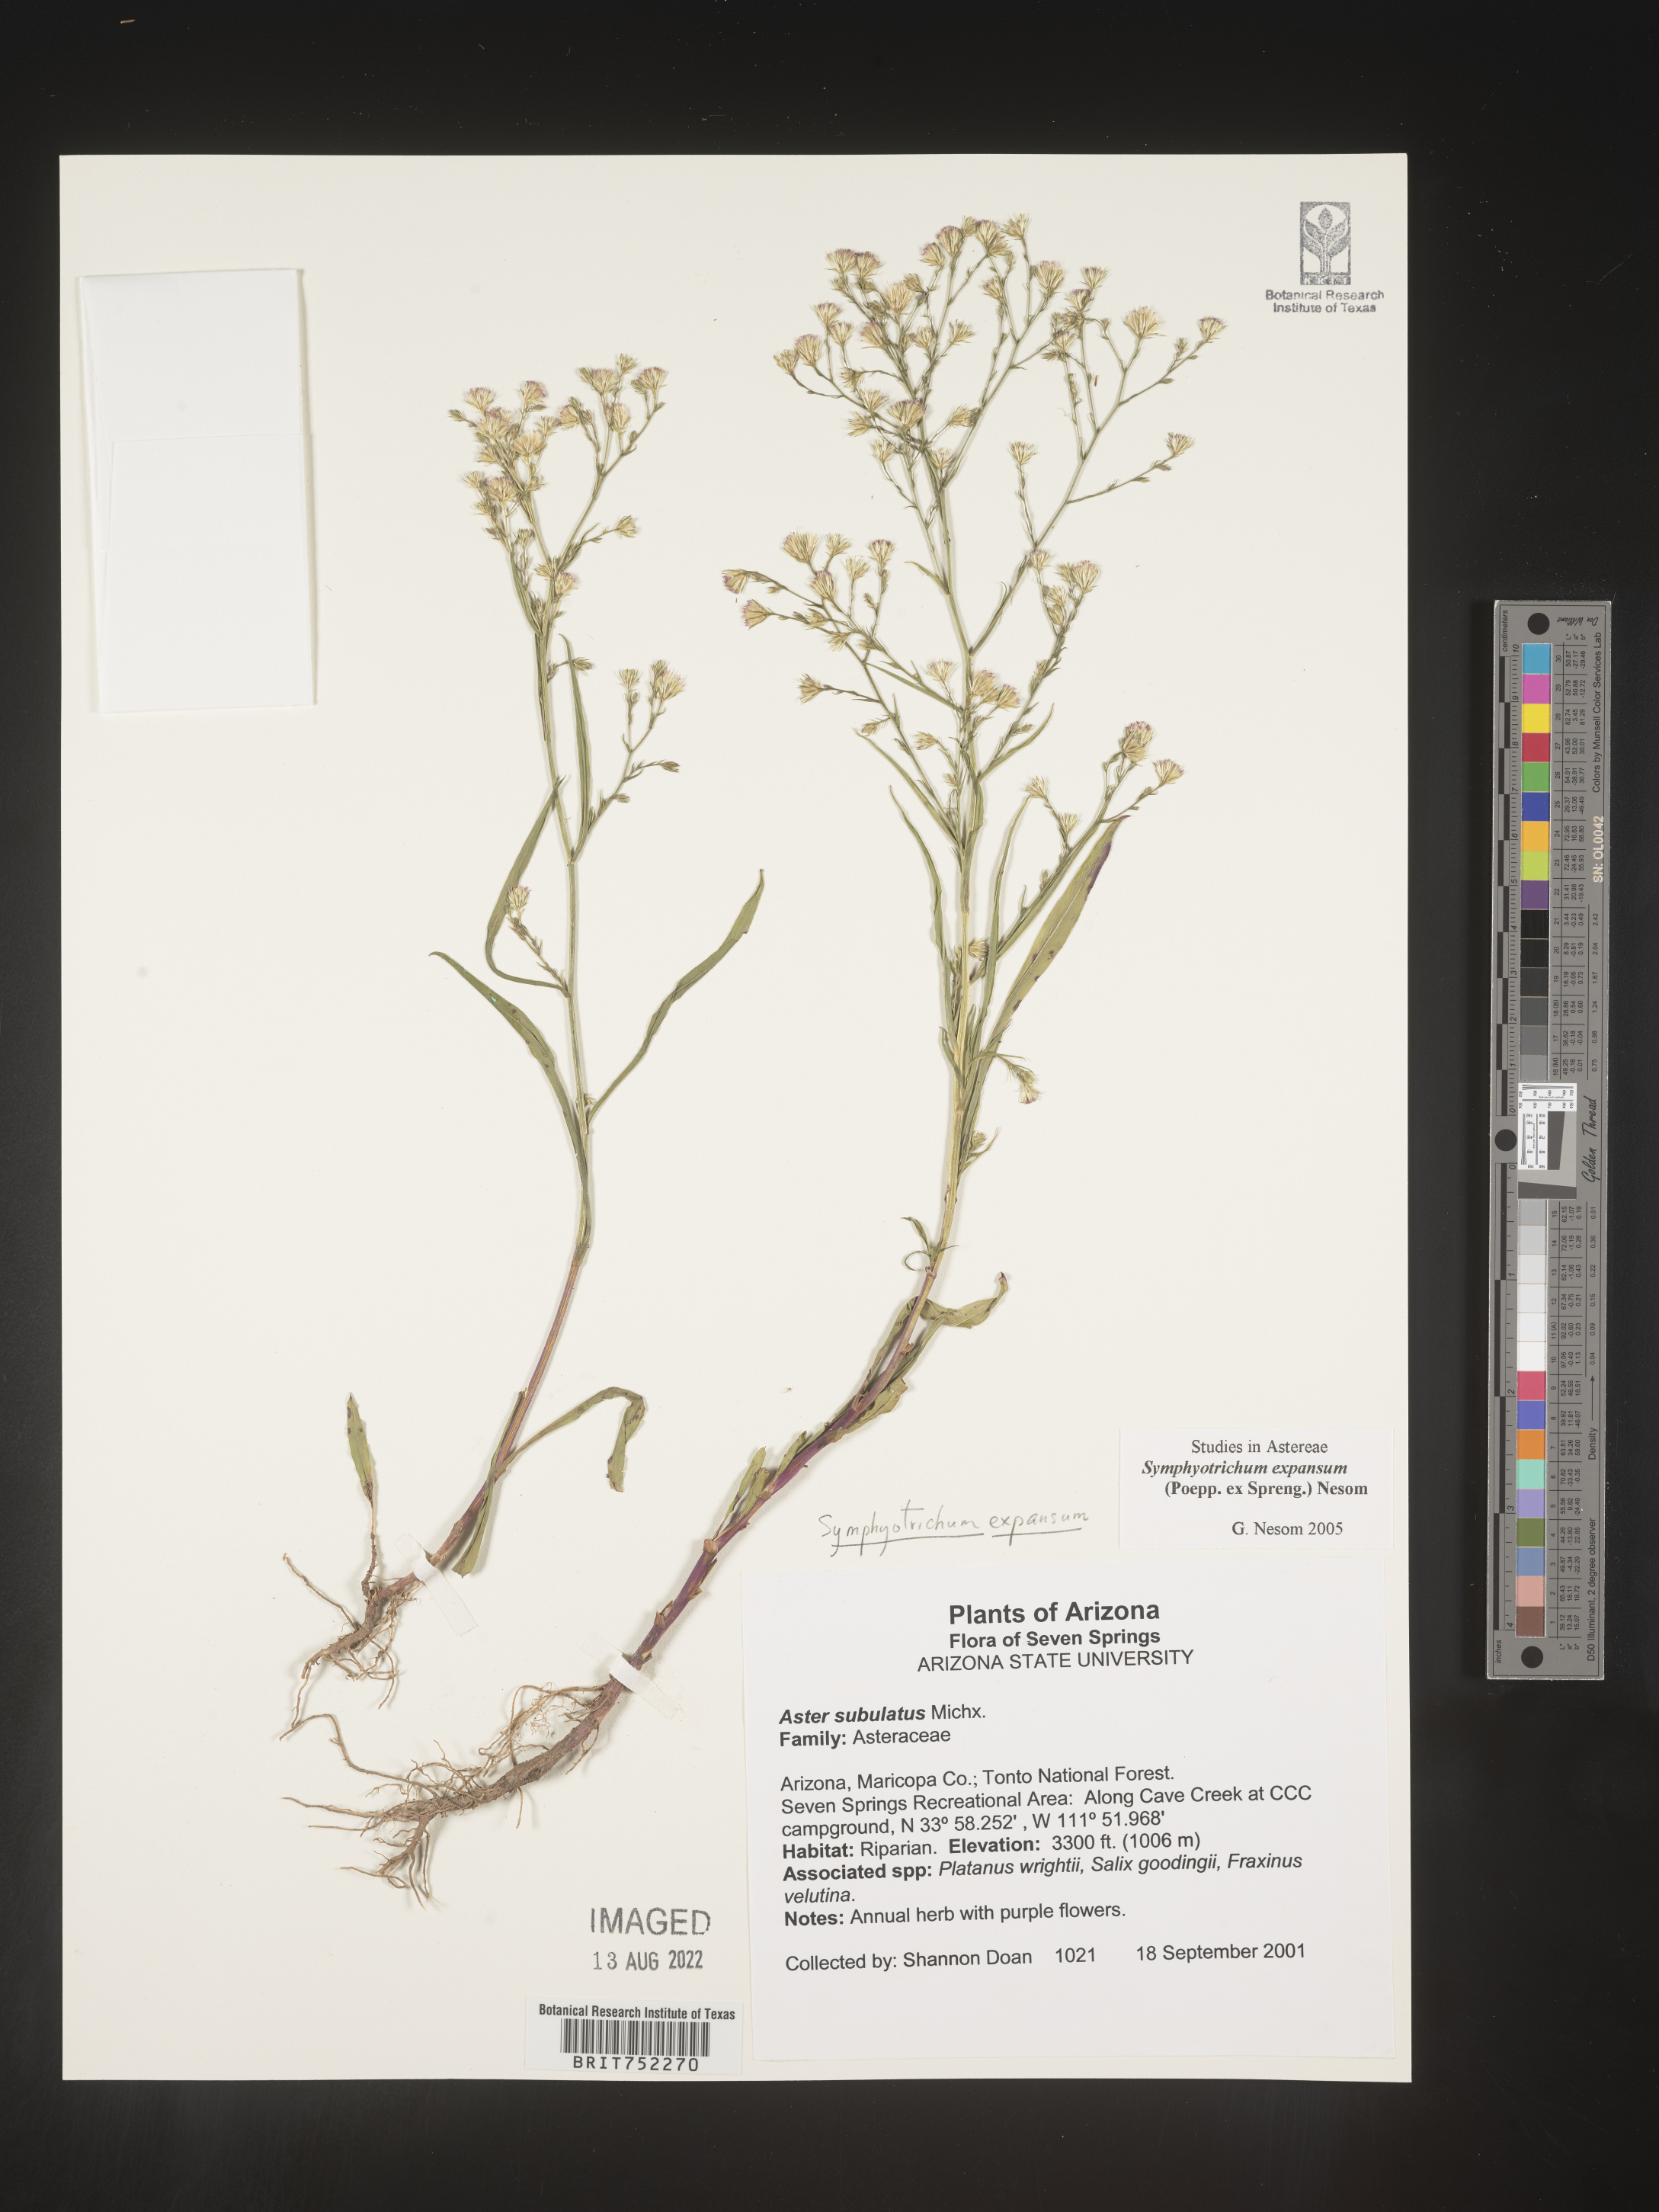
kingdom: Plantae
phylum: Tracheophyta
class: Magnoliopsida
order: Asterales
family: Asteraceae
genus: Symphyotrichum
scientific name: Symphyotrichum expansum
